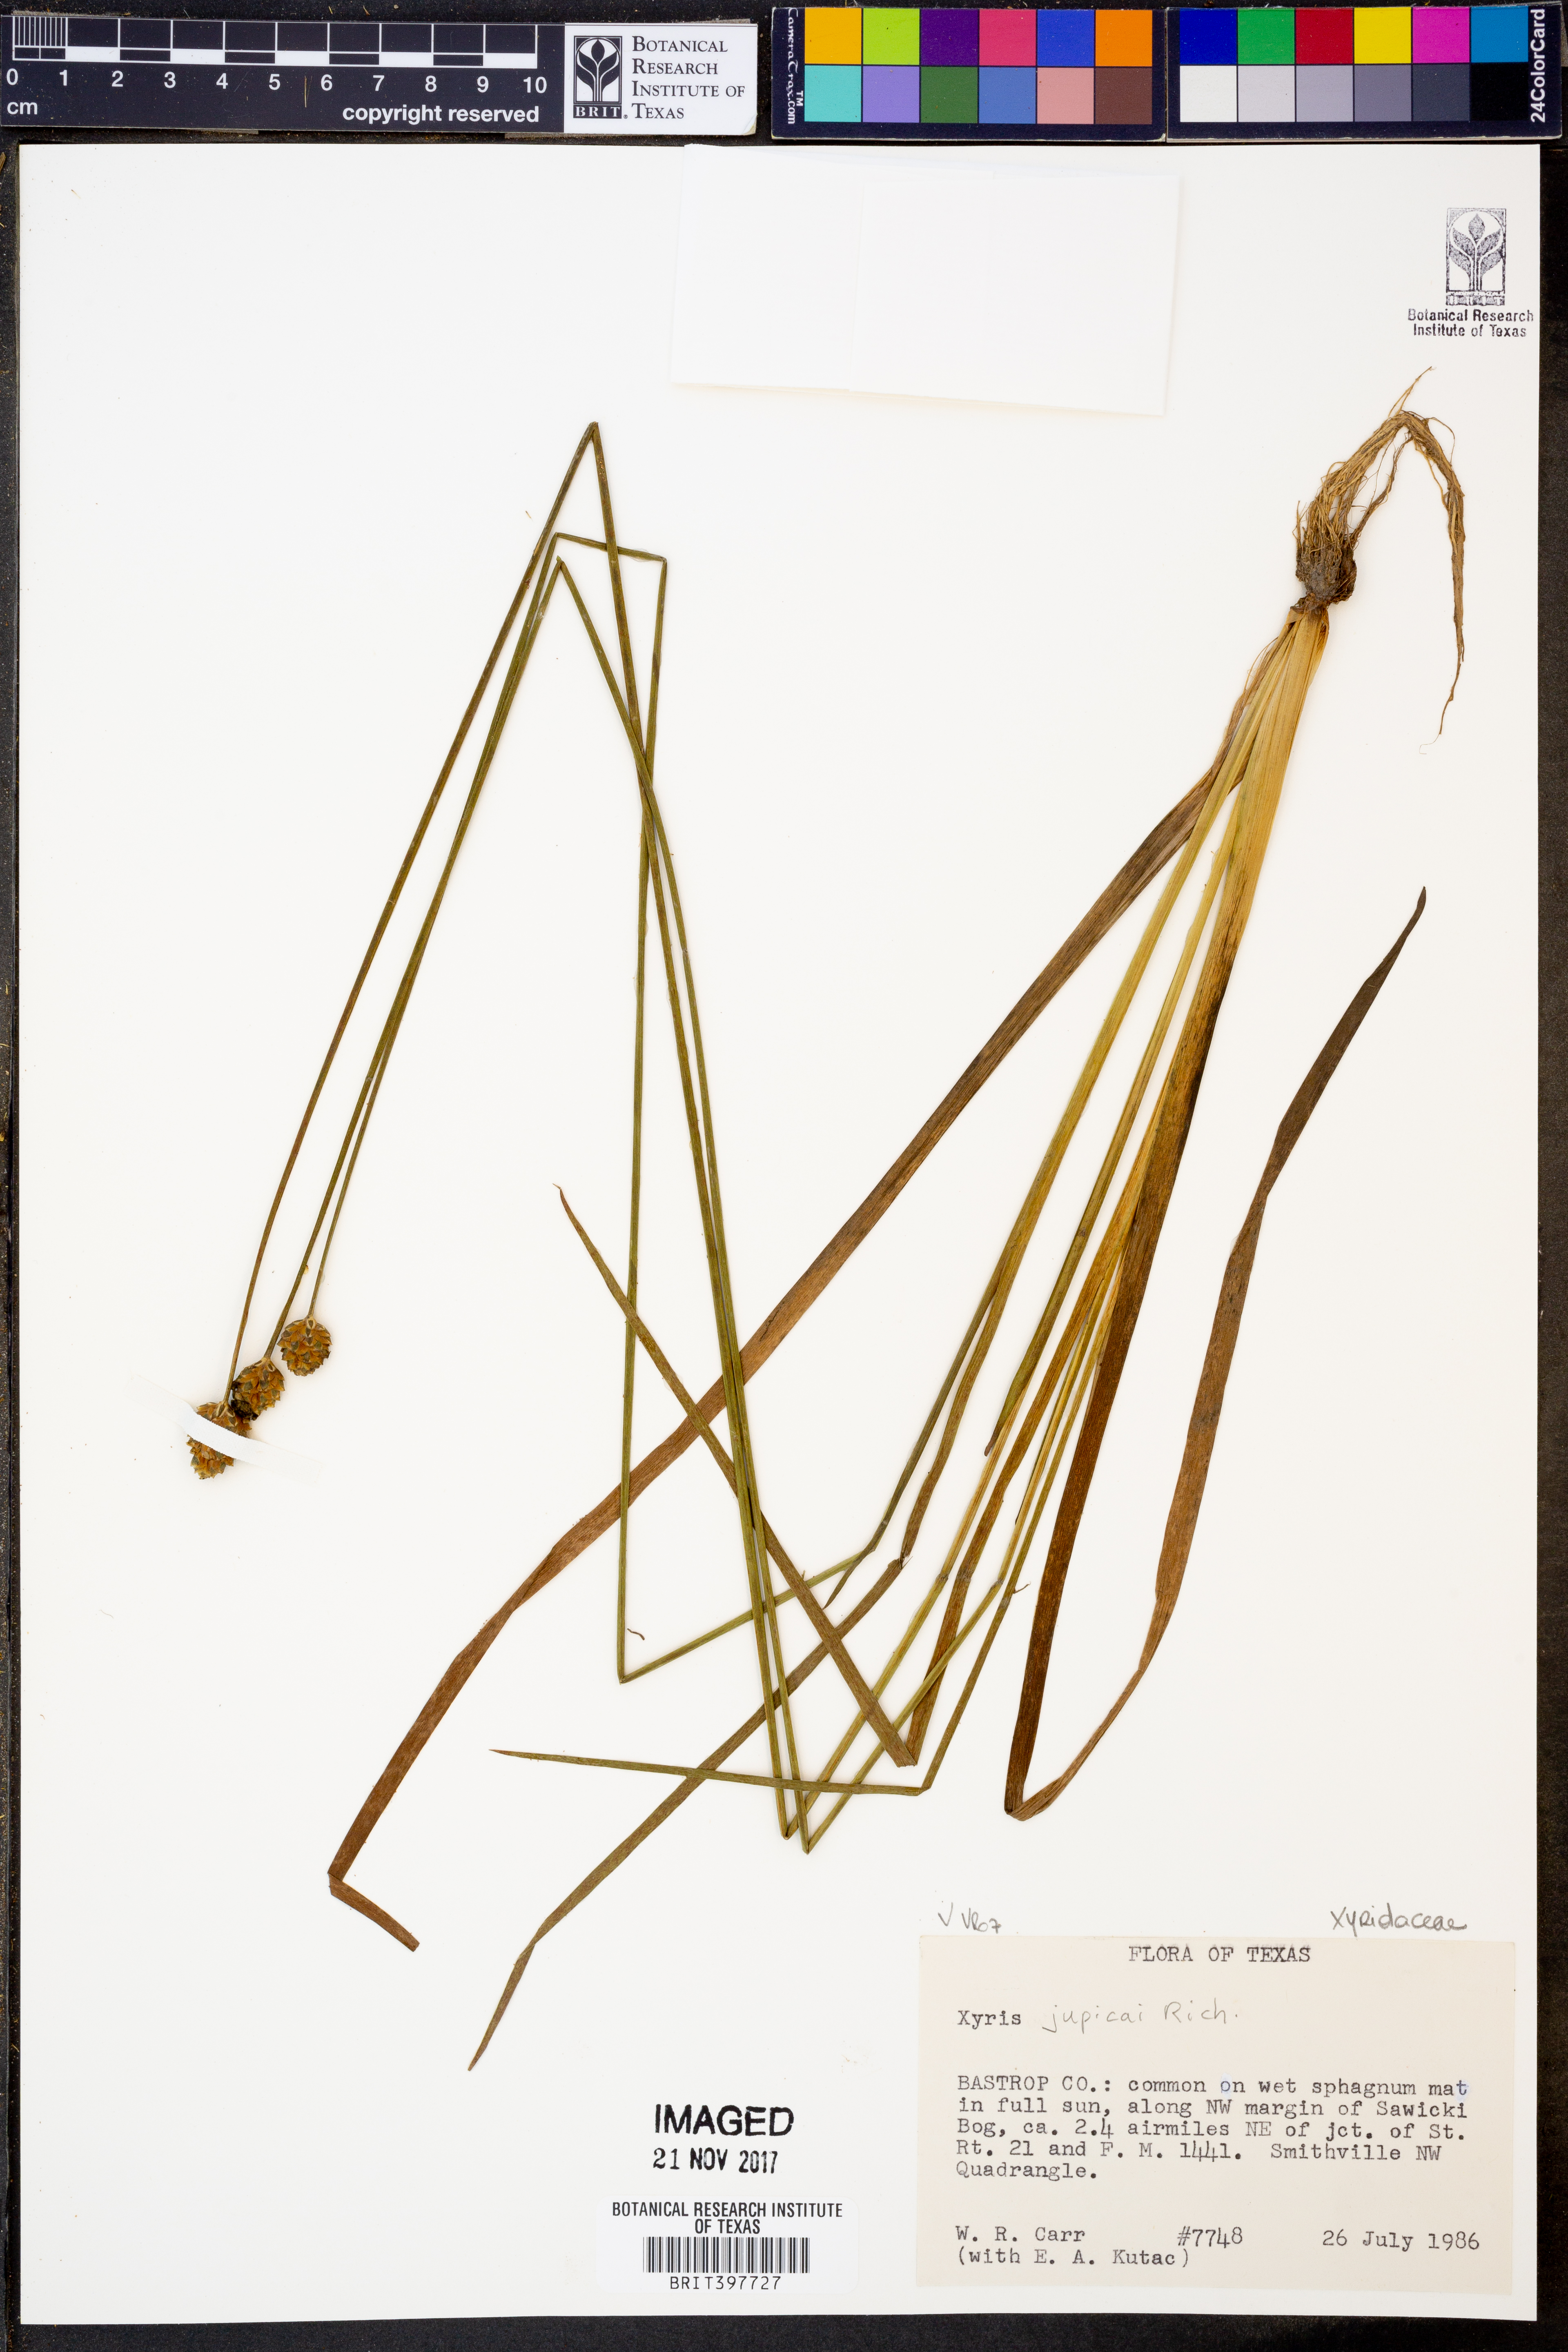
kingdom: Plantae
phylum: Tracheophyta
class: Liliopsida
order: Poales
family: Xyridaceae
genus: Xyris
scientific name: Xyris jupicai
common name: Richard's yelloweyed grass
